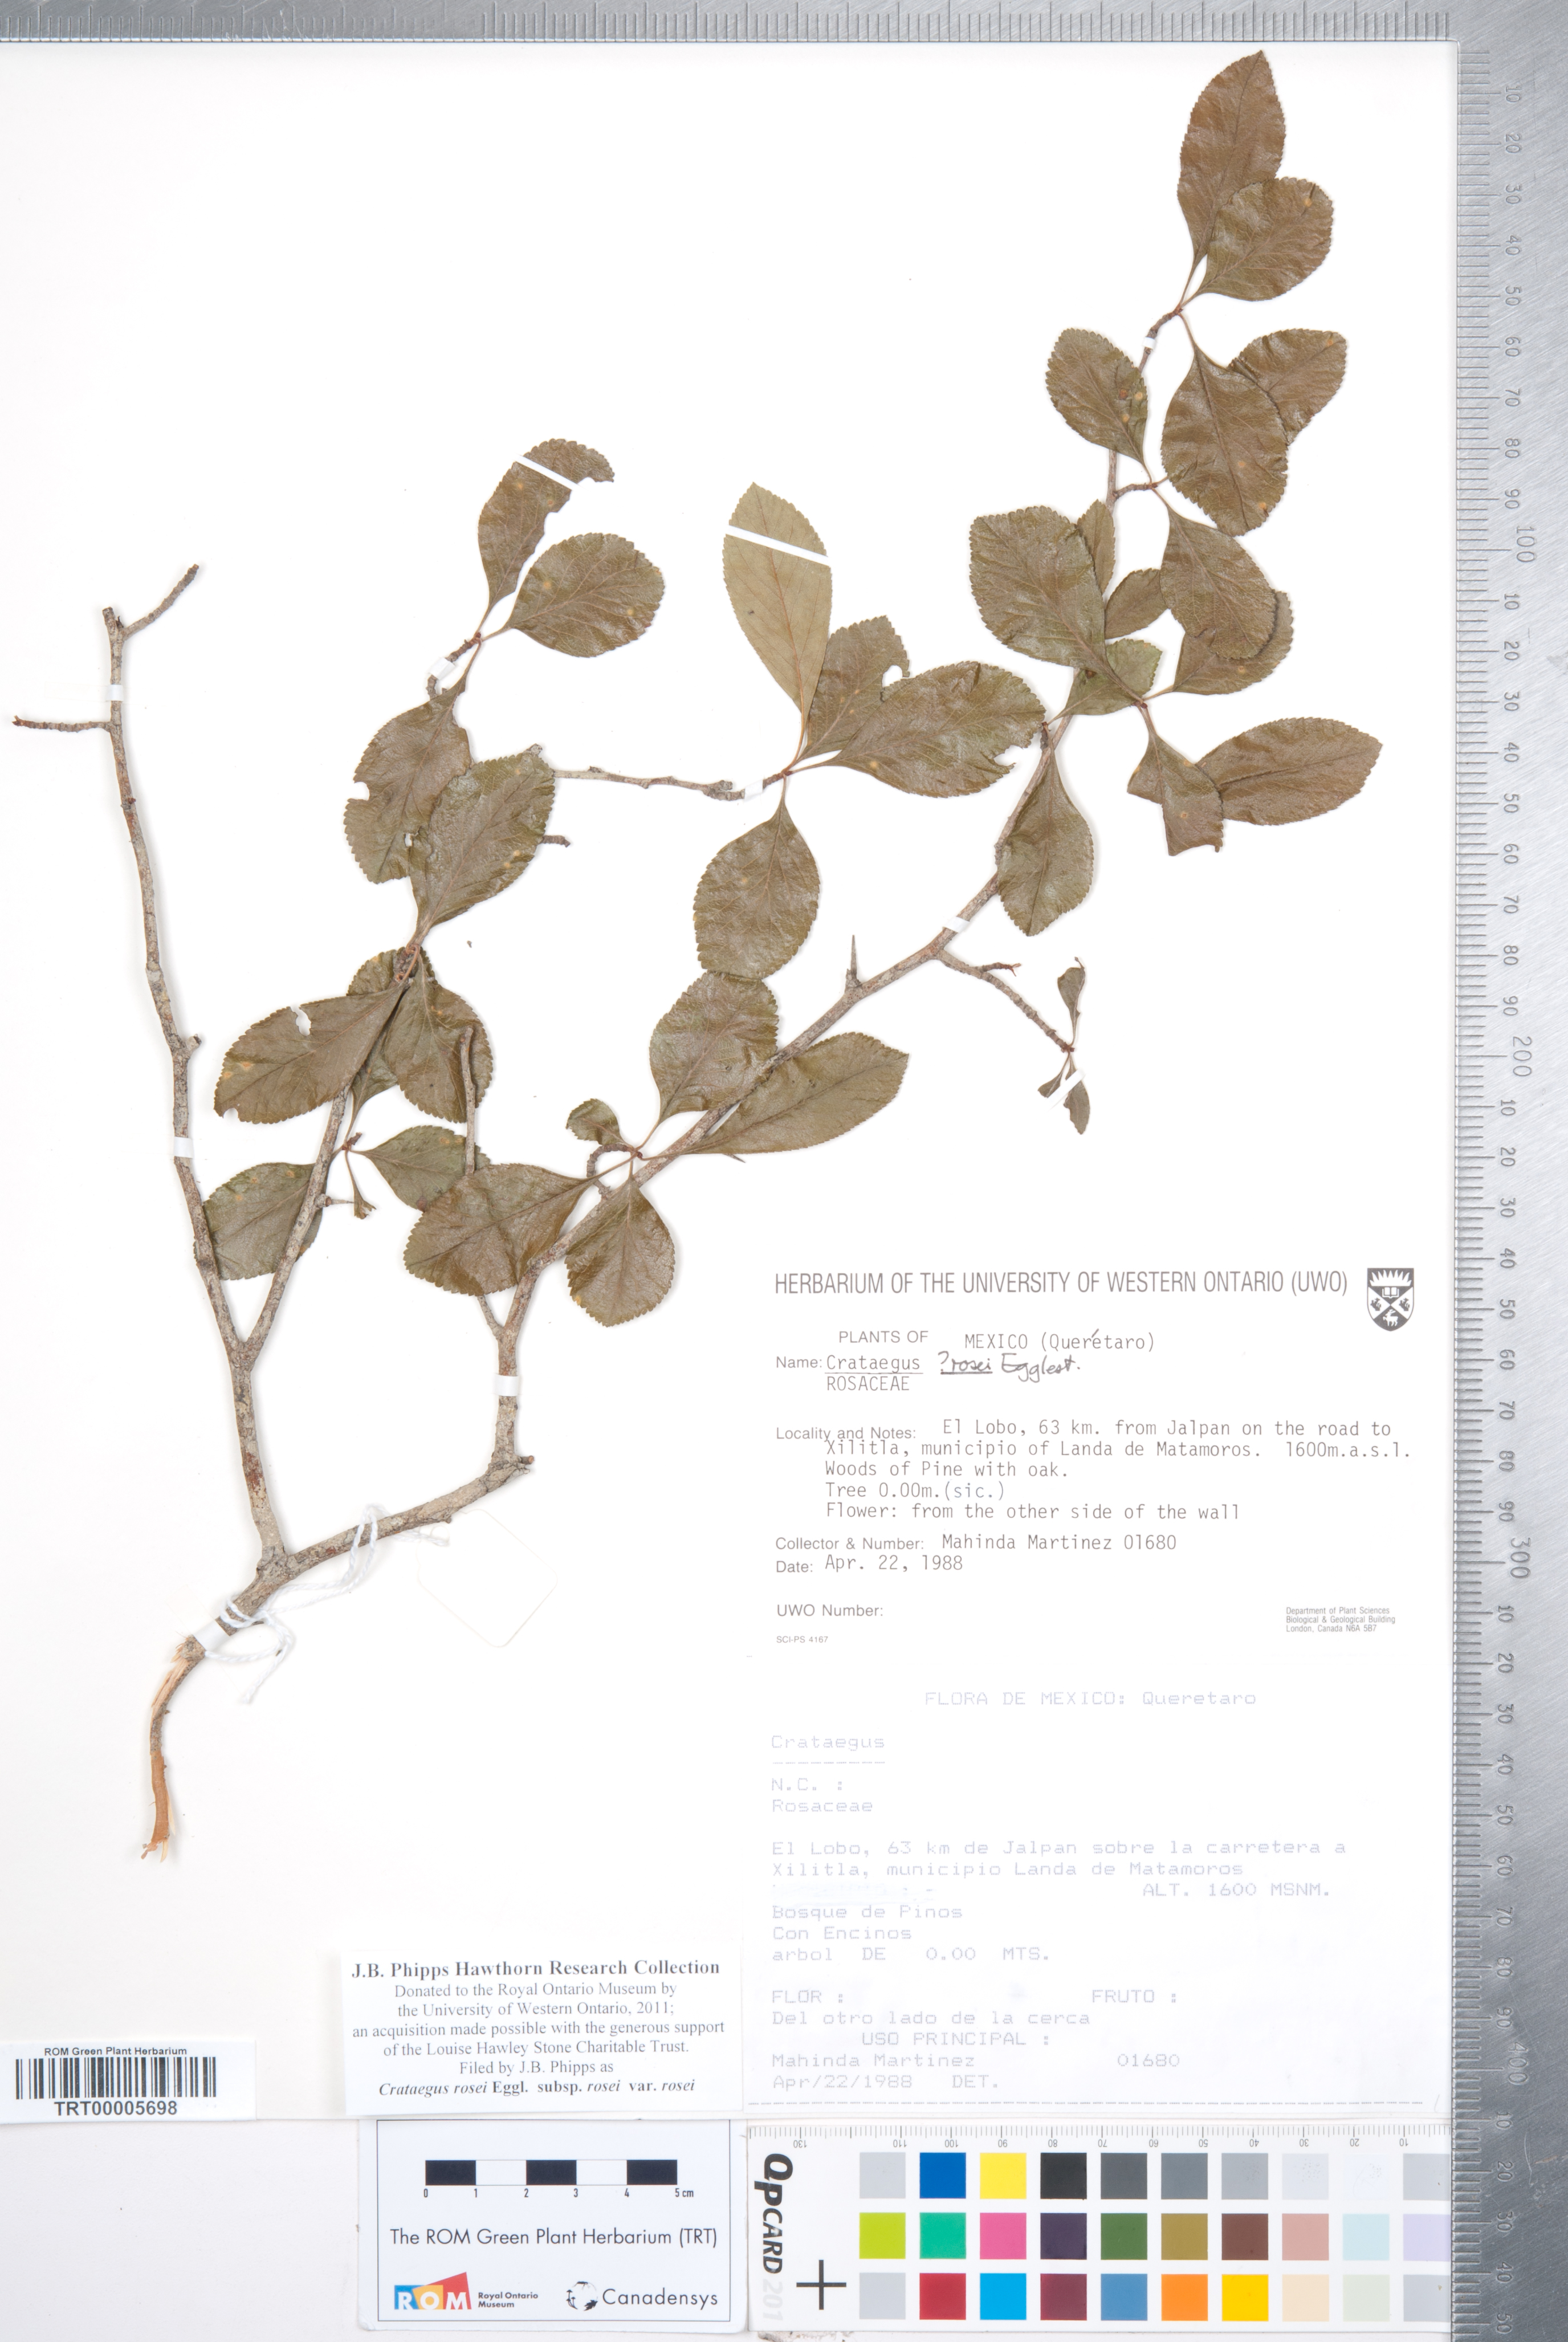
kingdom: Plantae
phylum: Tracheophyta
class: Magnoliopsida
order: Rosales
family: Rosaceae
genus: Crataegus
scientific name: Crataegus rosei
